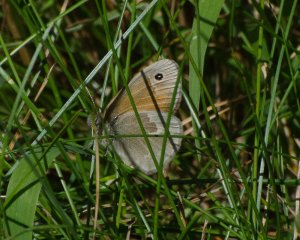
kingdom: Animalia
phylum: Arthropoda
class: Insecta
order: Lepidoptera
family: Nymphalidae
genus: Coenonympha
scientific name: Coenonympha tullia
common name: Large Heath
